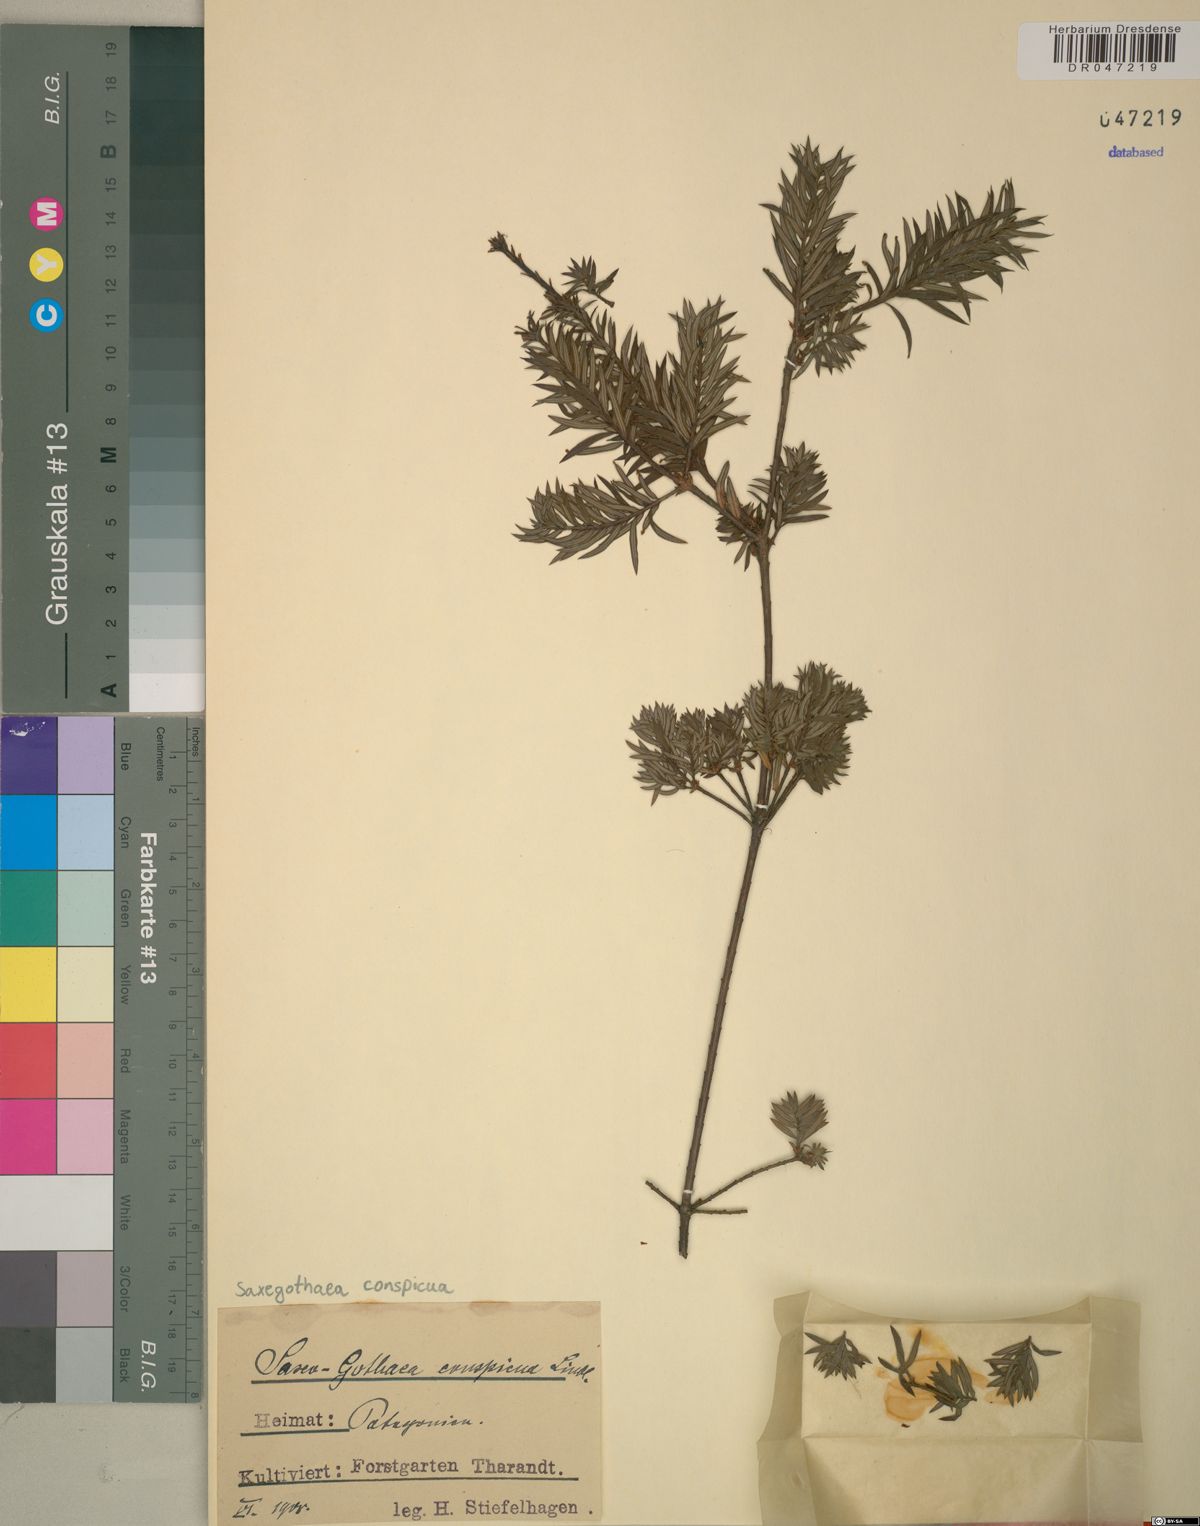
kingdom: Plantae
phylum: Tracheophyta
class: Pinopsida
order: Pinales
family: Podocarpaceae
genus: Saxegothaea
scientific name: Saxegothaea conspicua
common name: Prince albert's yew
